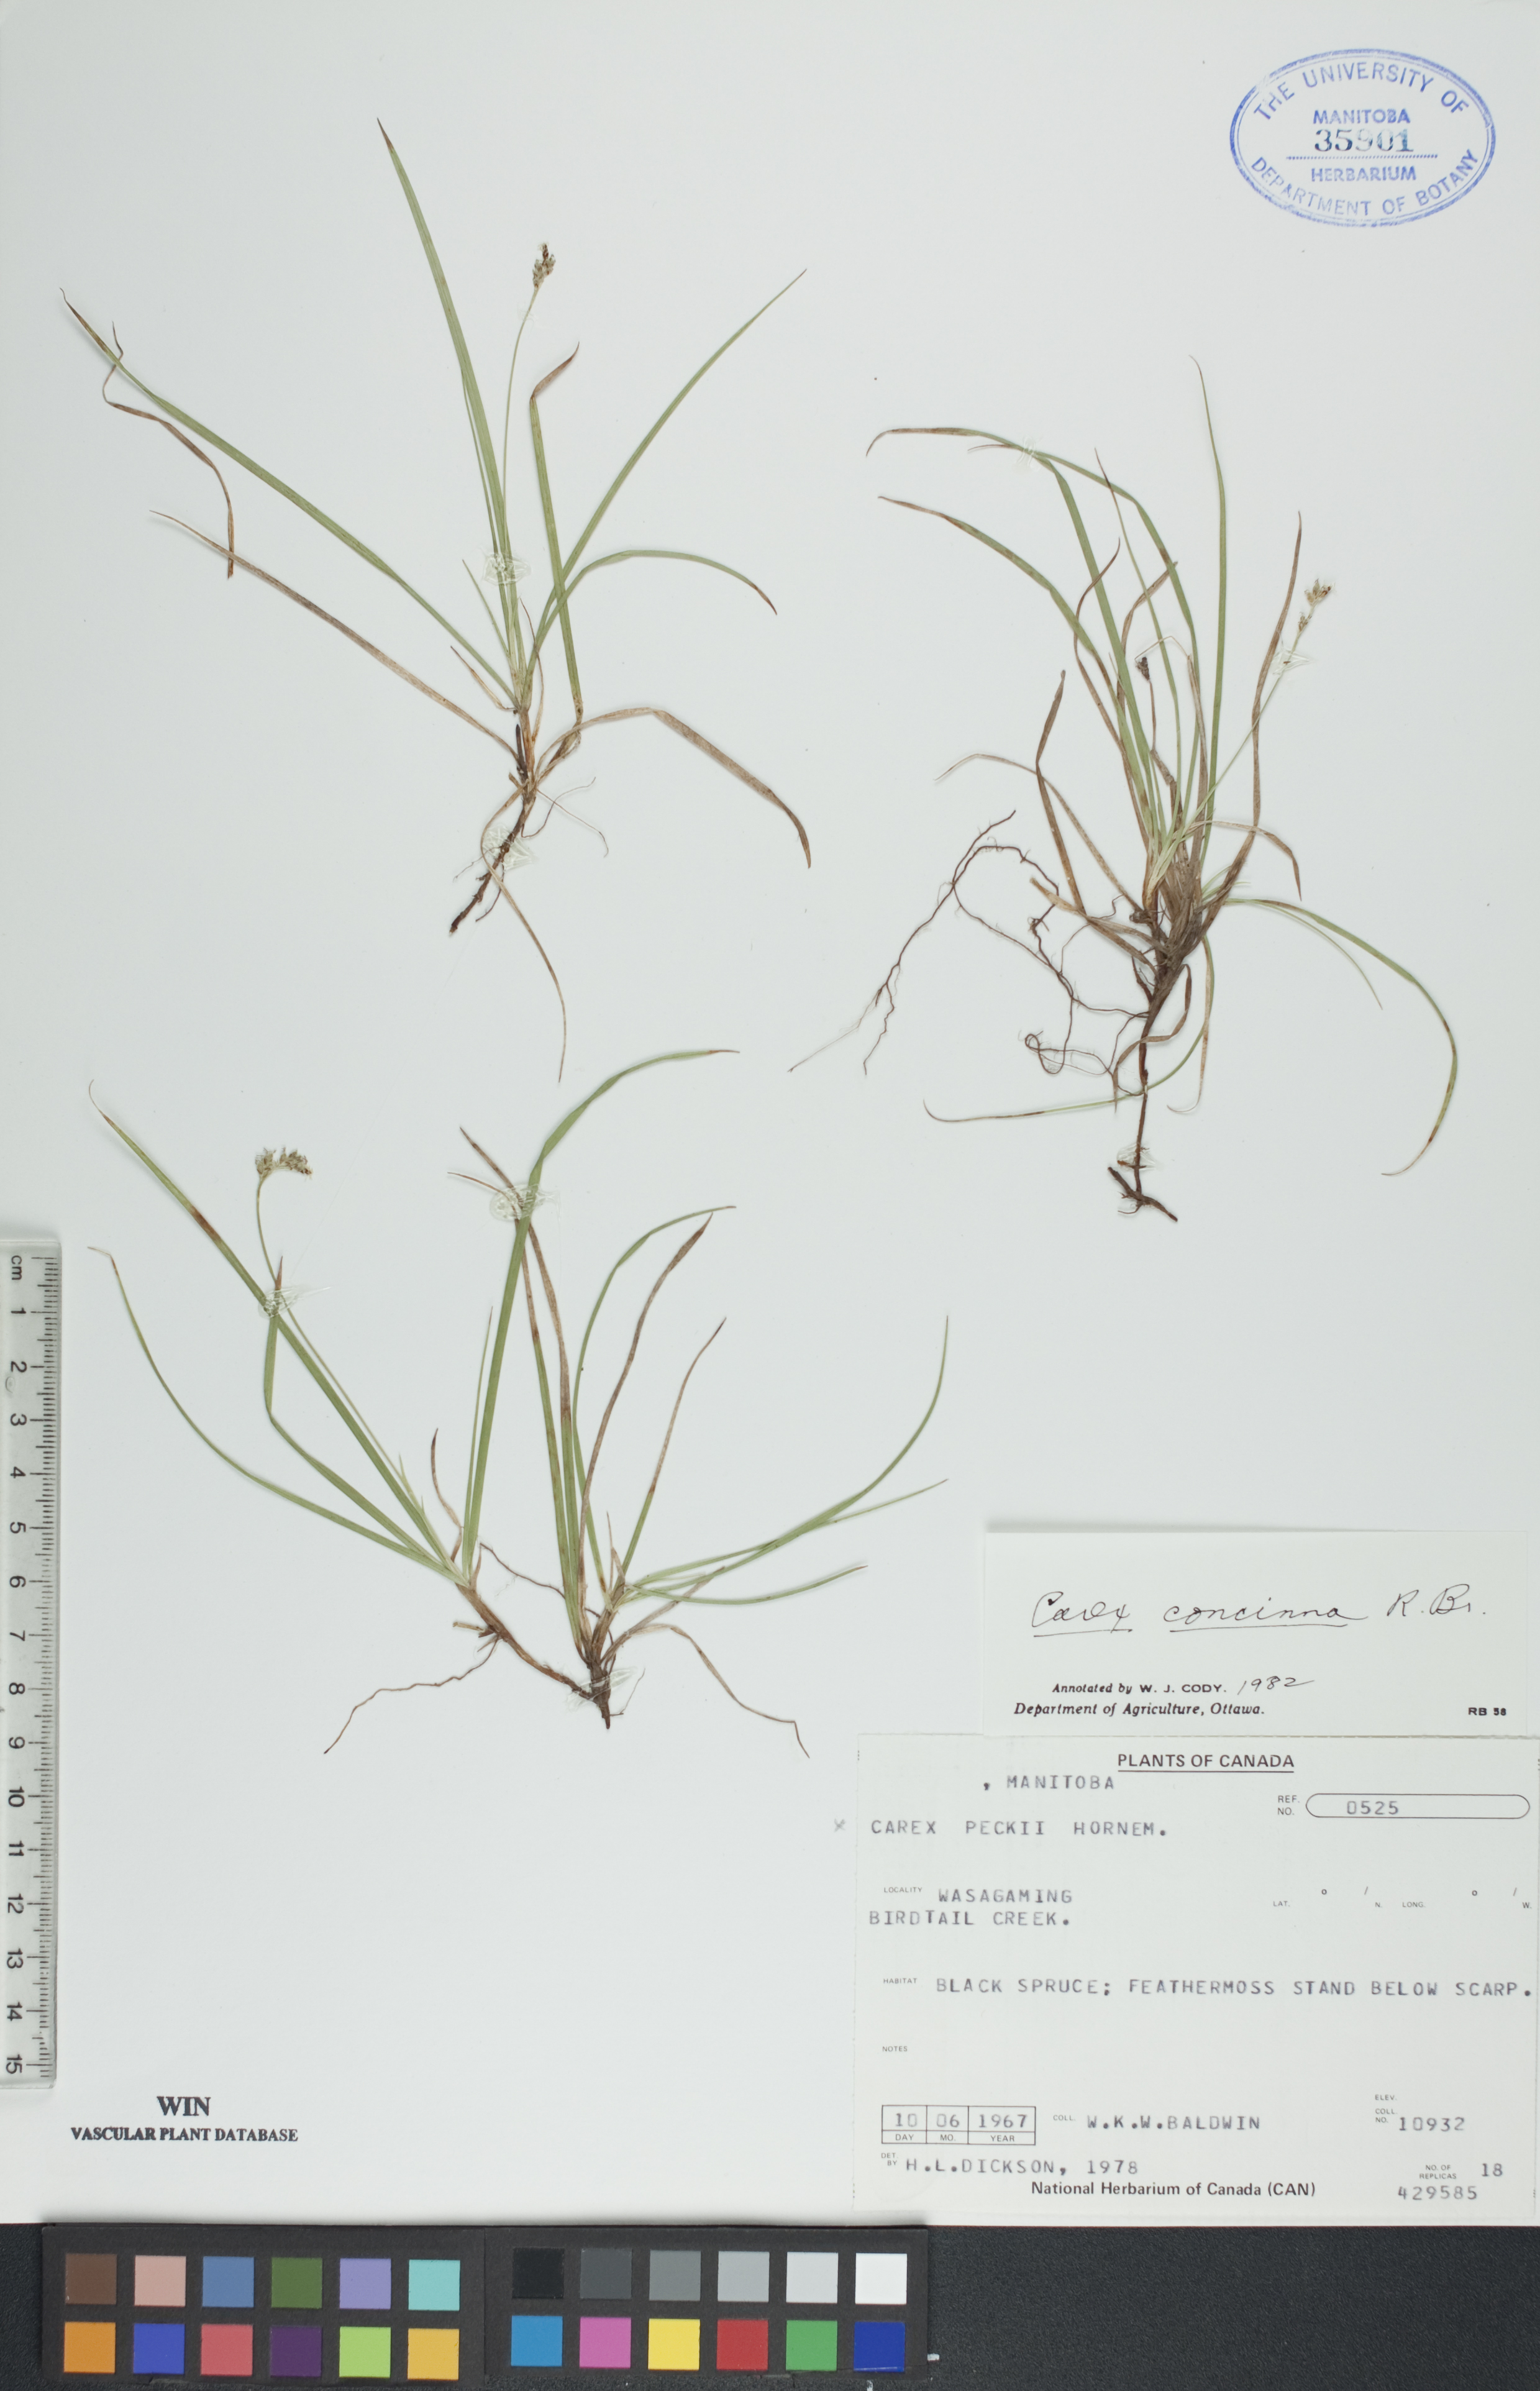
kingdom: Plantae
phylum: Tracheophyta
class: Liliopsida
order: Poales
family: Cyperaceae
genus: Carex
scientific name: Carex concinna
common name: Beautiful sedge
